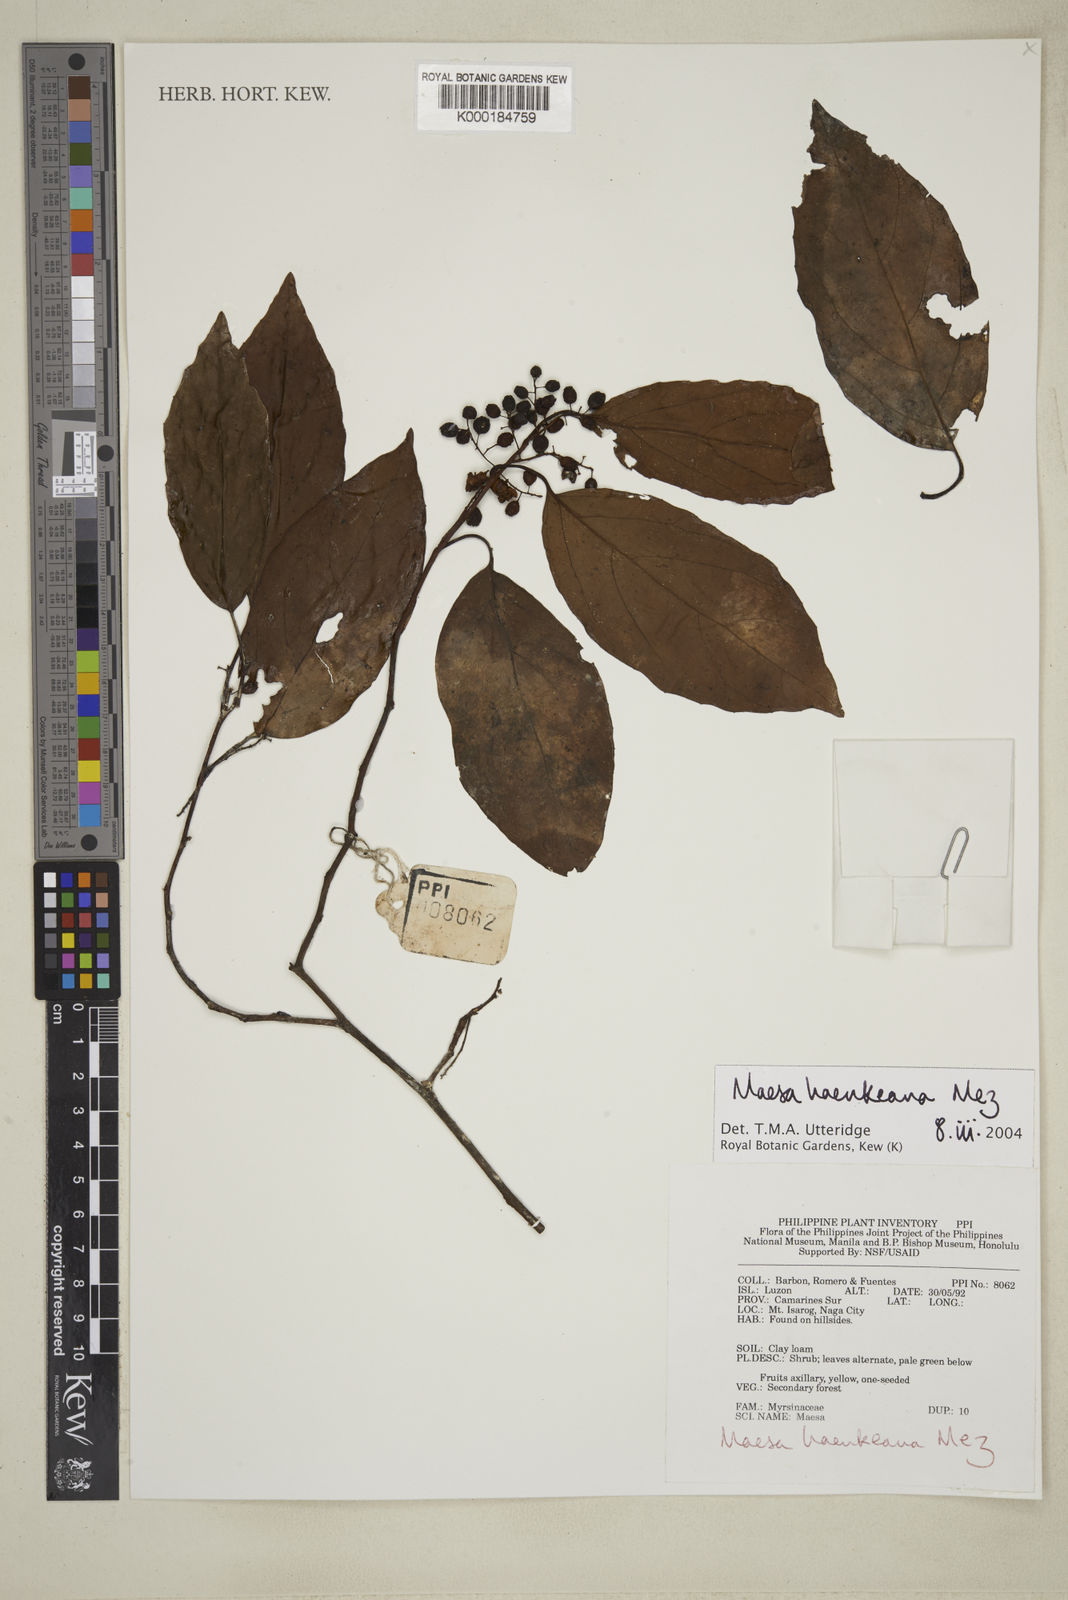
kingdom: Plantae
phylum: Tracheophyta
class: Magnoliopsida
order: Ericales
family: Primulaceae
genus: Maesa
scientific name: Maesa haenkeana
